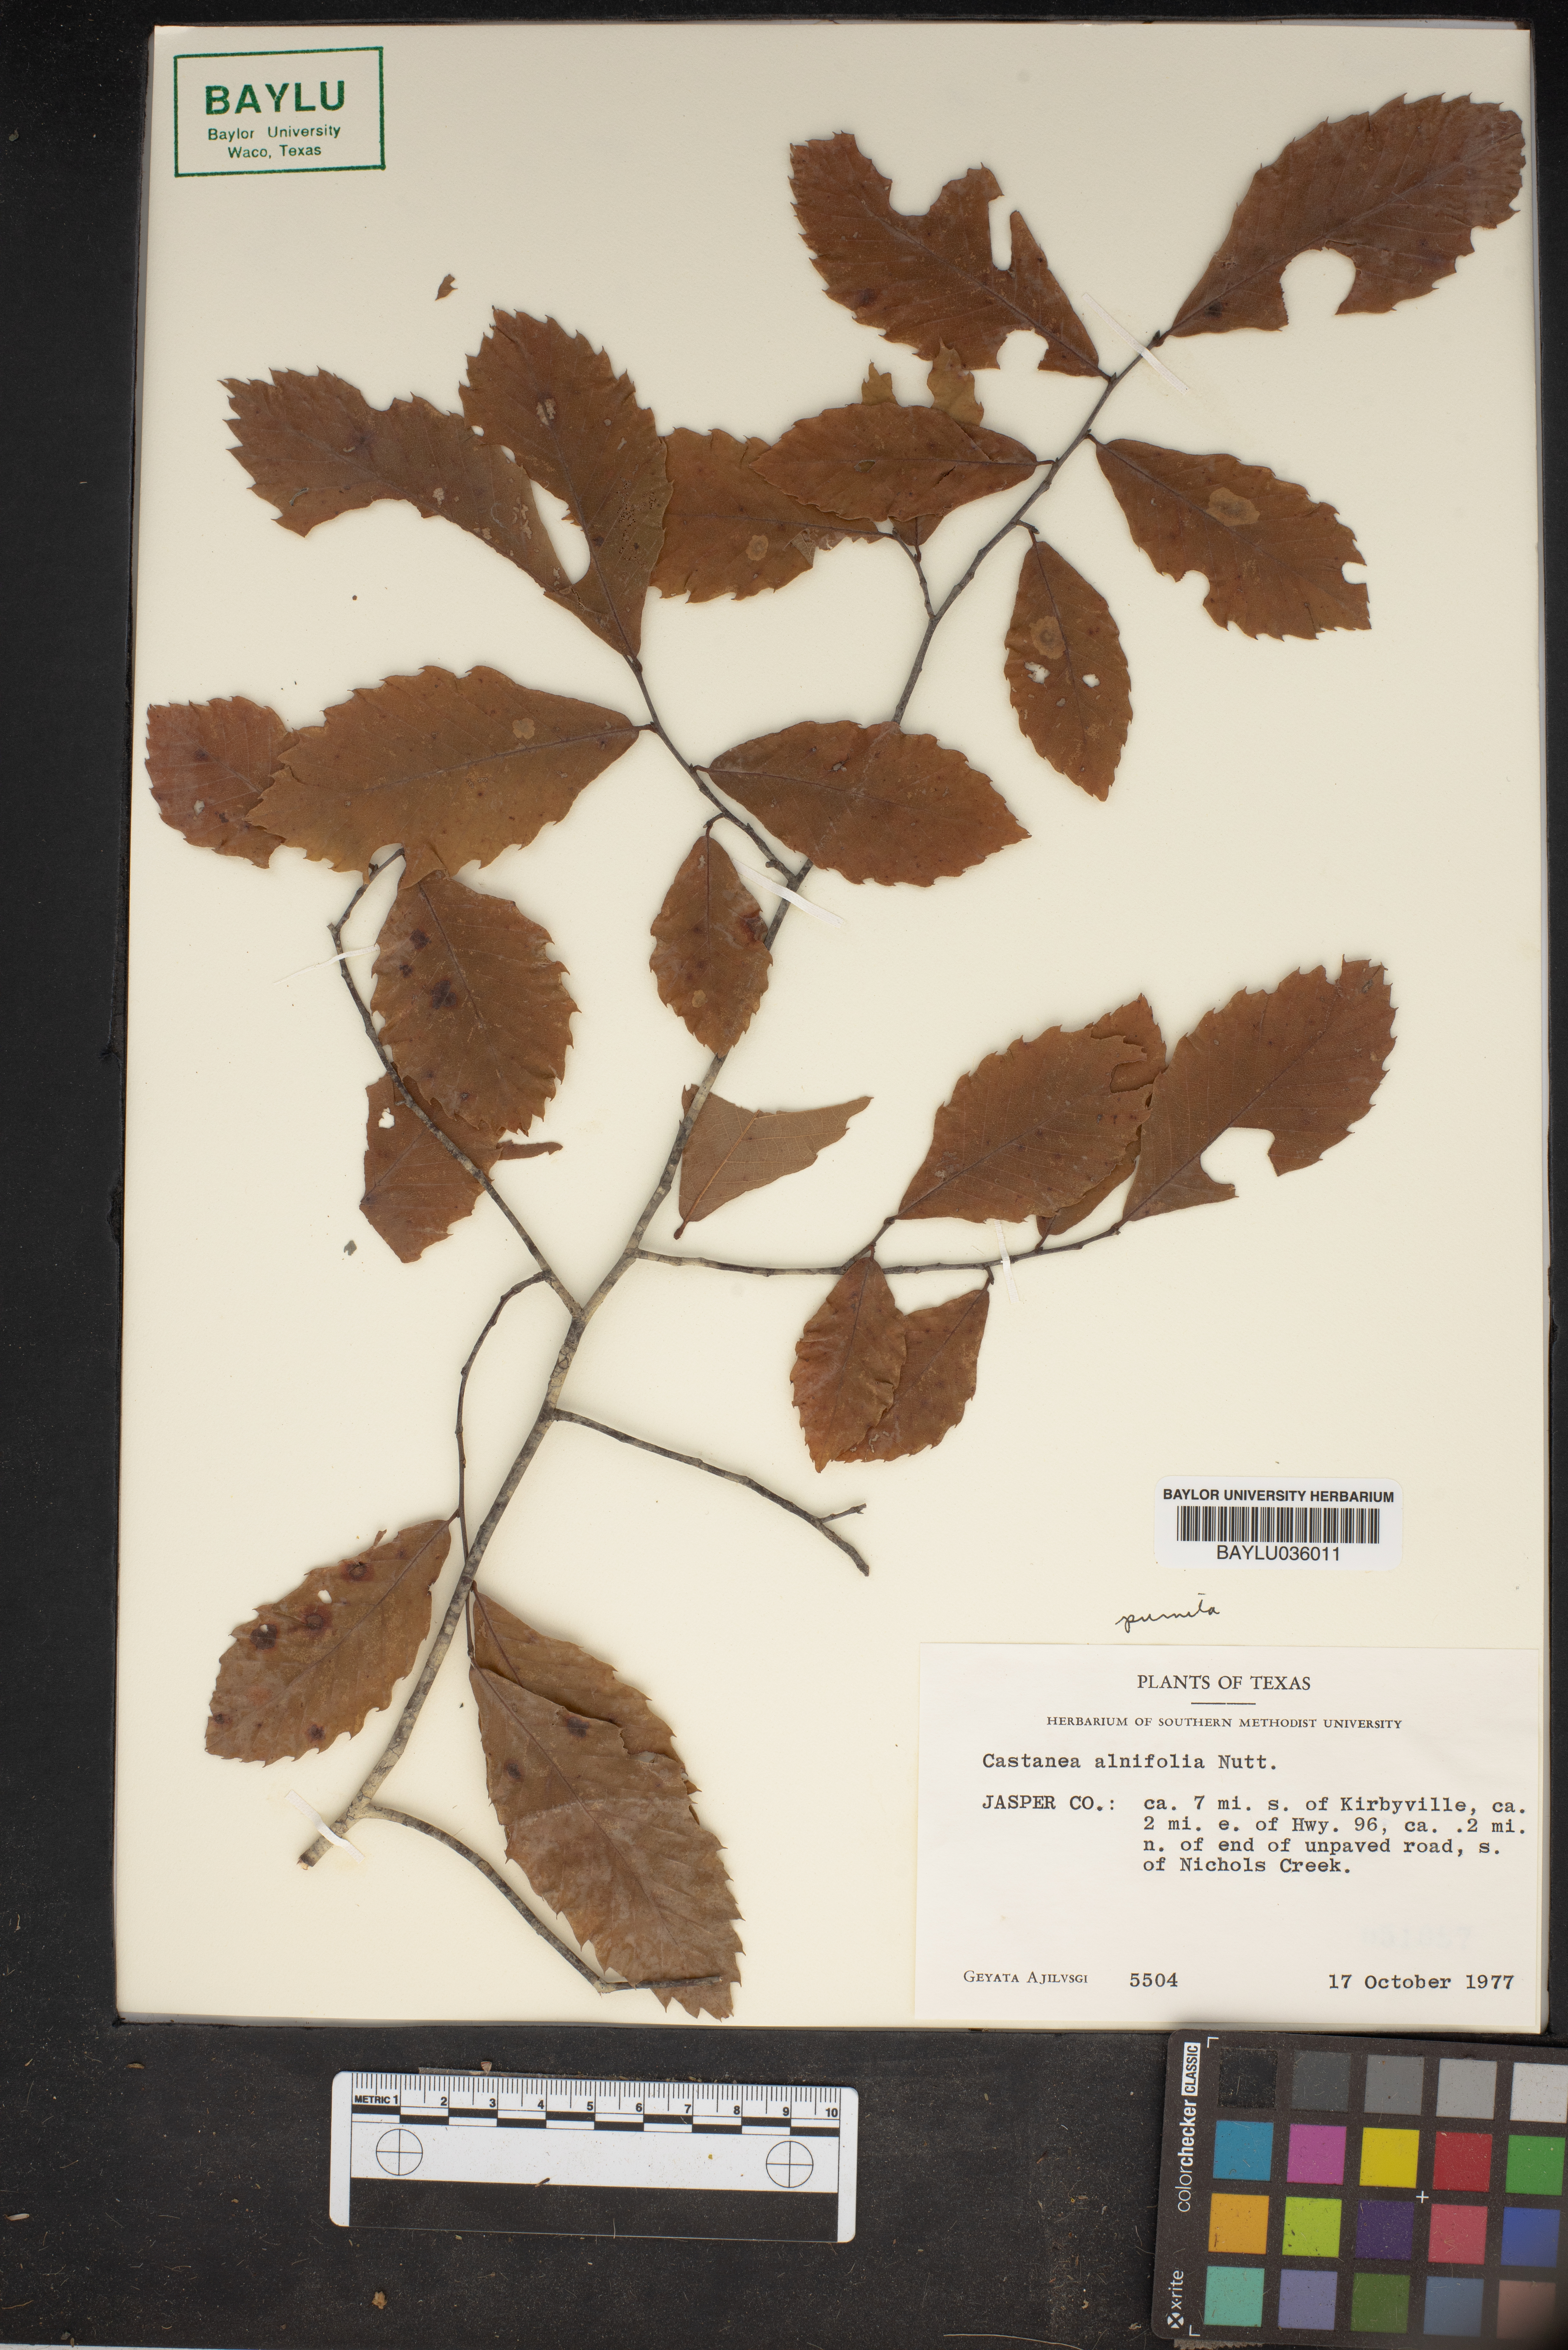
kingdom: Plantae
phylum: Tracheophyta
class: Magnoliopsida
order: Fagales
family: Fagaceae
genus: Castanea
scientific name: Castanea pumila
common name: Chinkapin
